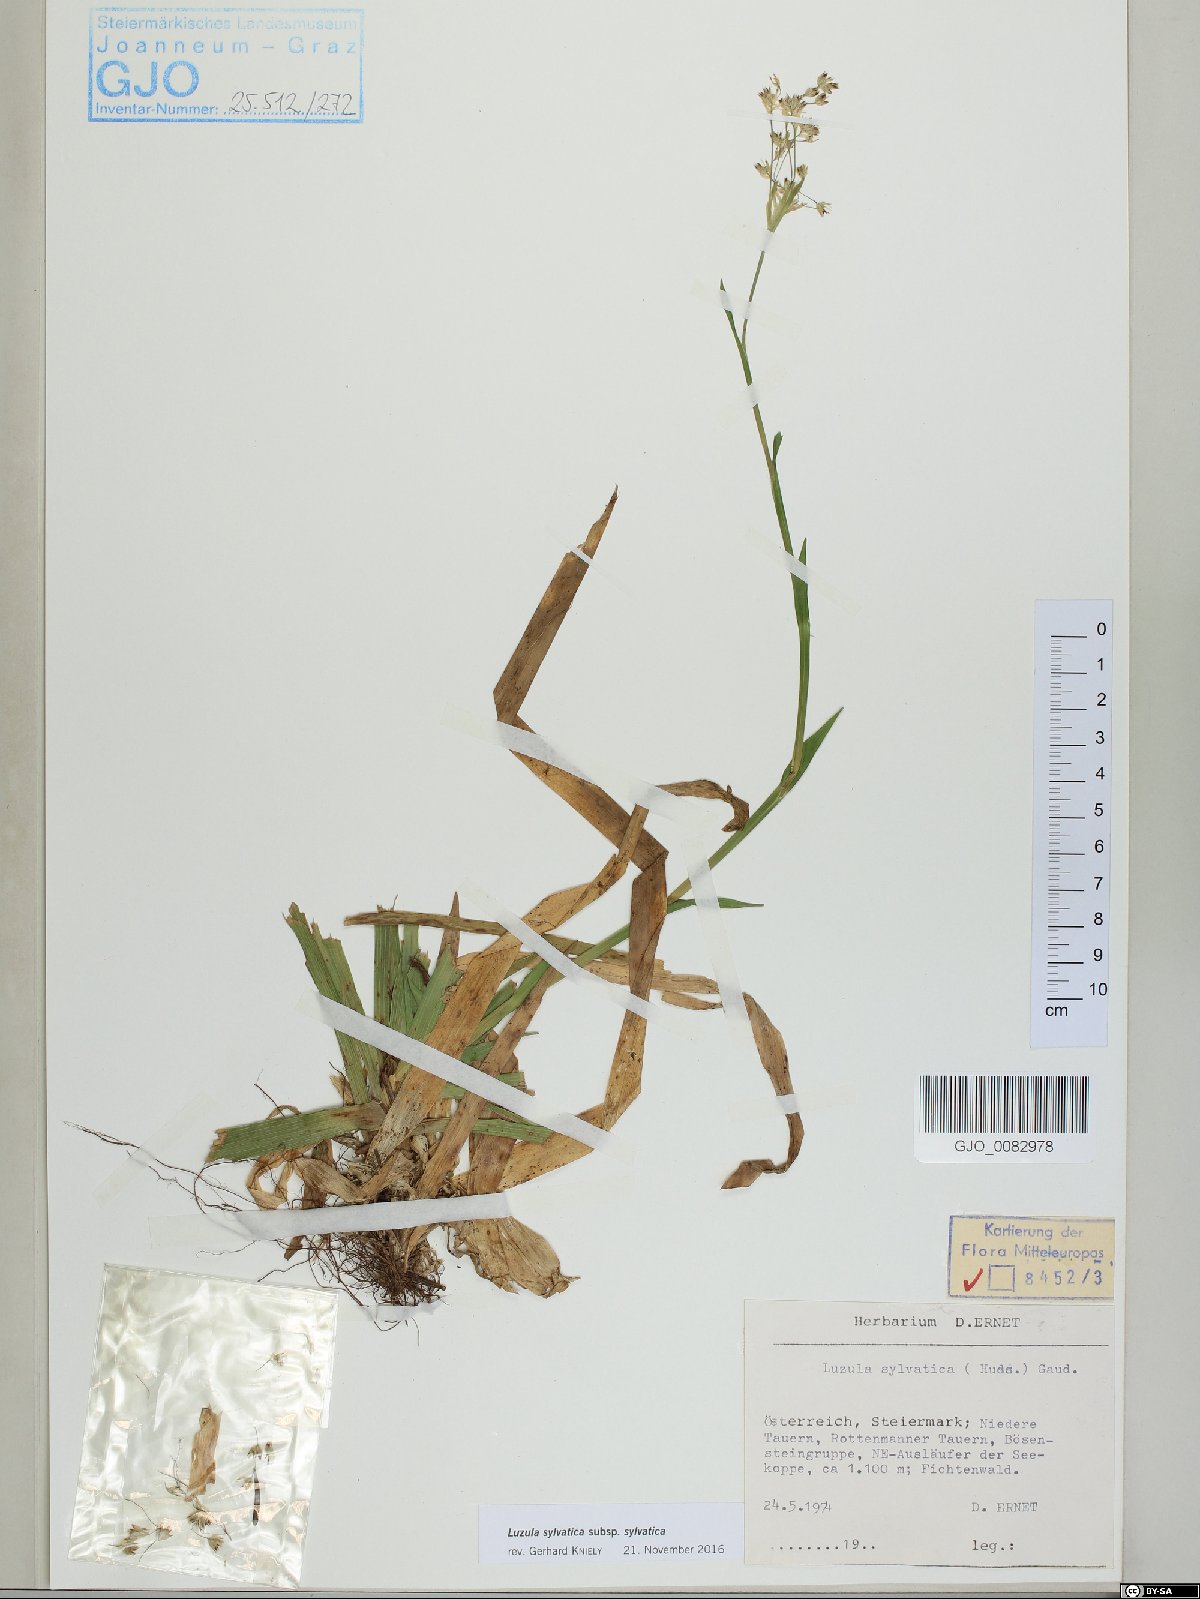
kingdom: Plantae
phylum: Tracheophyta
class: Liliopsida
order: Poales
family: Juncaceae
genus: Luzula
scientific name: Luzula sylvatica
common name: Great wood-rush
